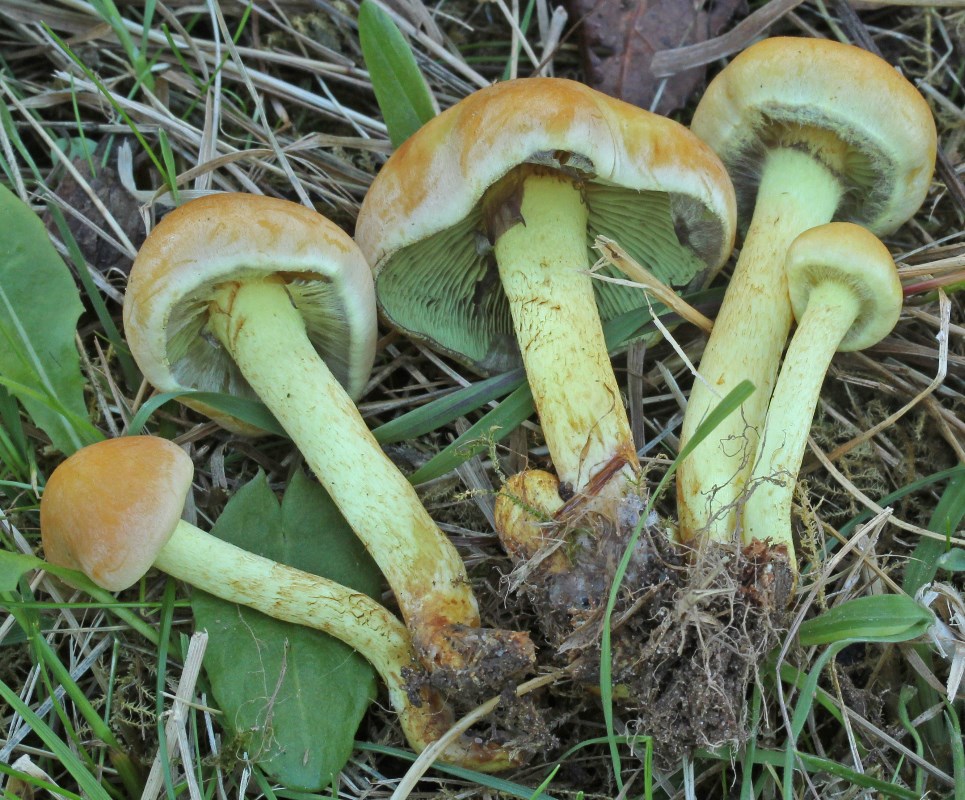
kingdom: Fungi
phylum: Basidiomycota
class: Agaricomycetes
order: Agaricales
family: Strophariaceae
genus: Hypholoma
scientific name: Hypholoma fasciculare
